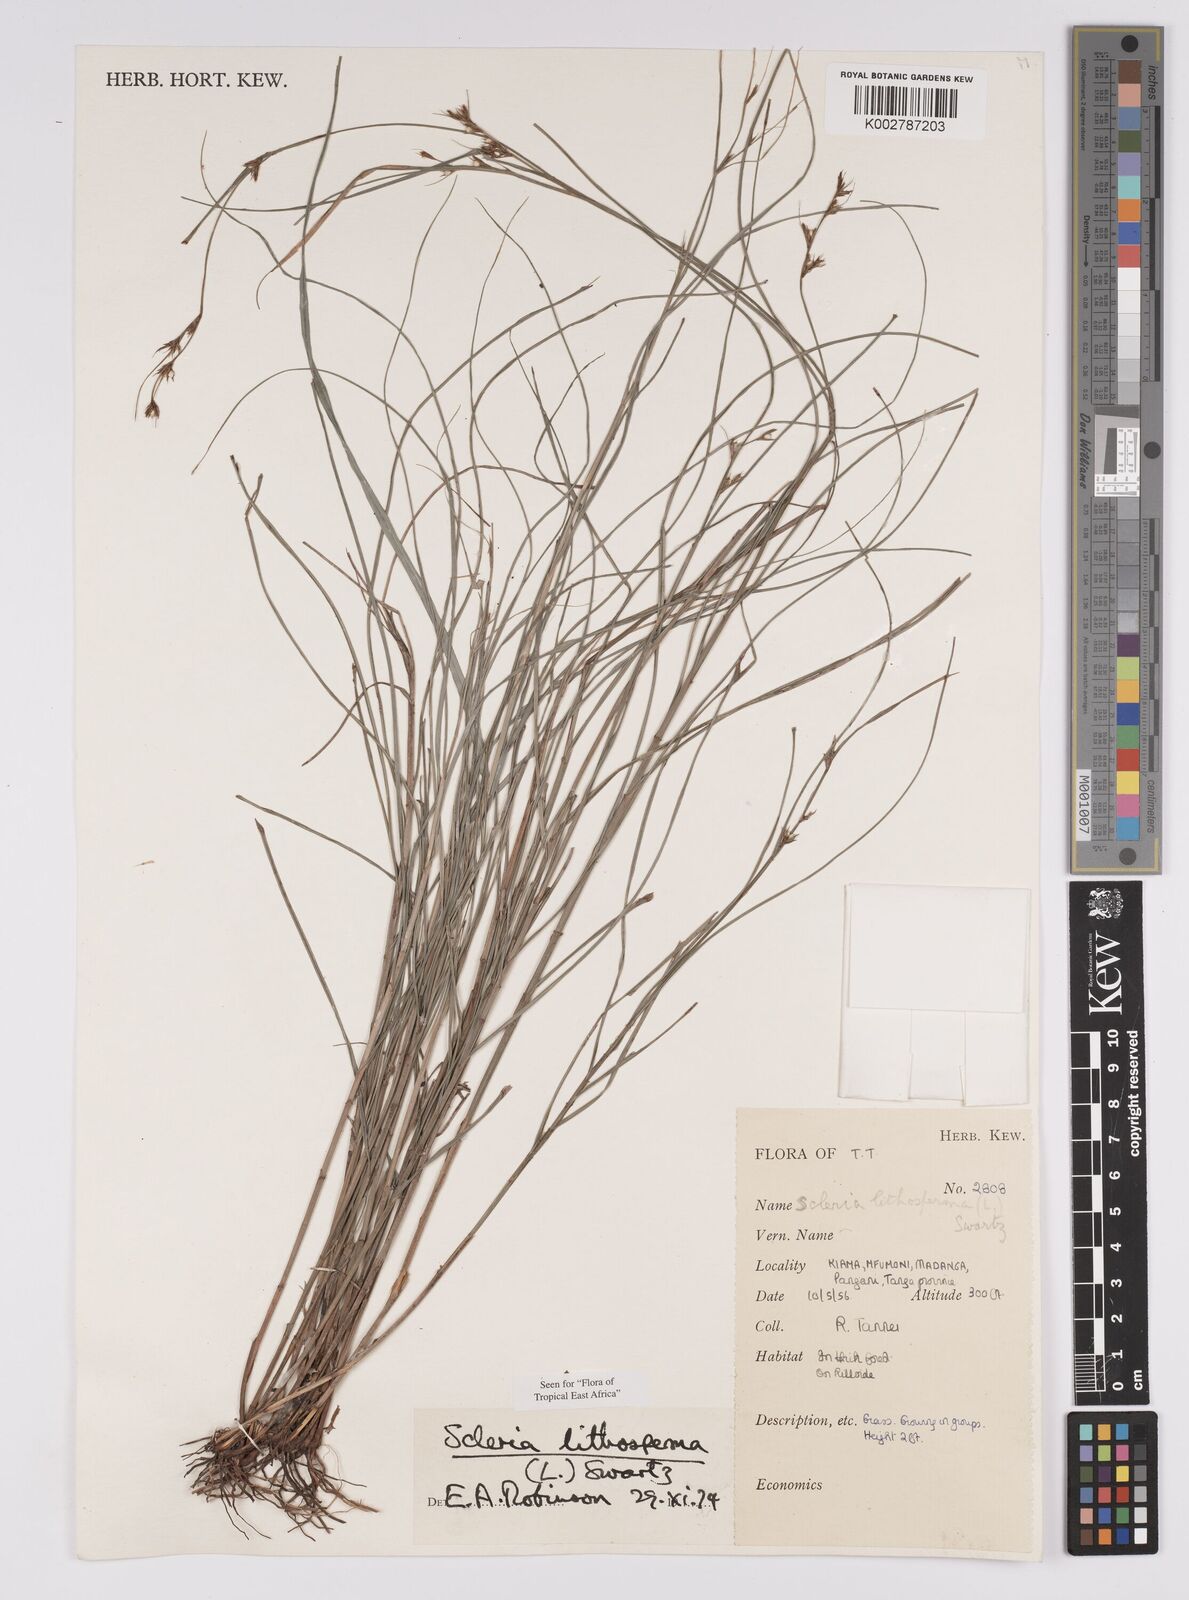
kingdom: Plantae
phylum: Tracheophyta
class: Liliopsida
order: Poales
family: Cyperaceae
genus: Scleria
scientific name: Scleria lithosperma
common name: Florida keys nut-rush
